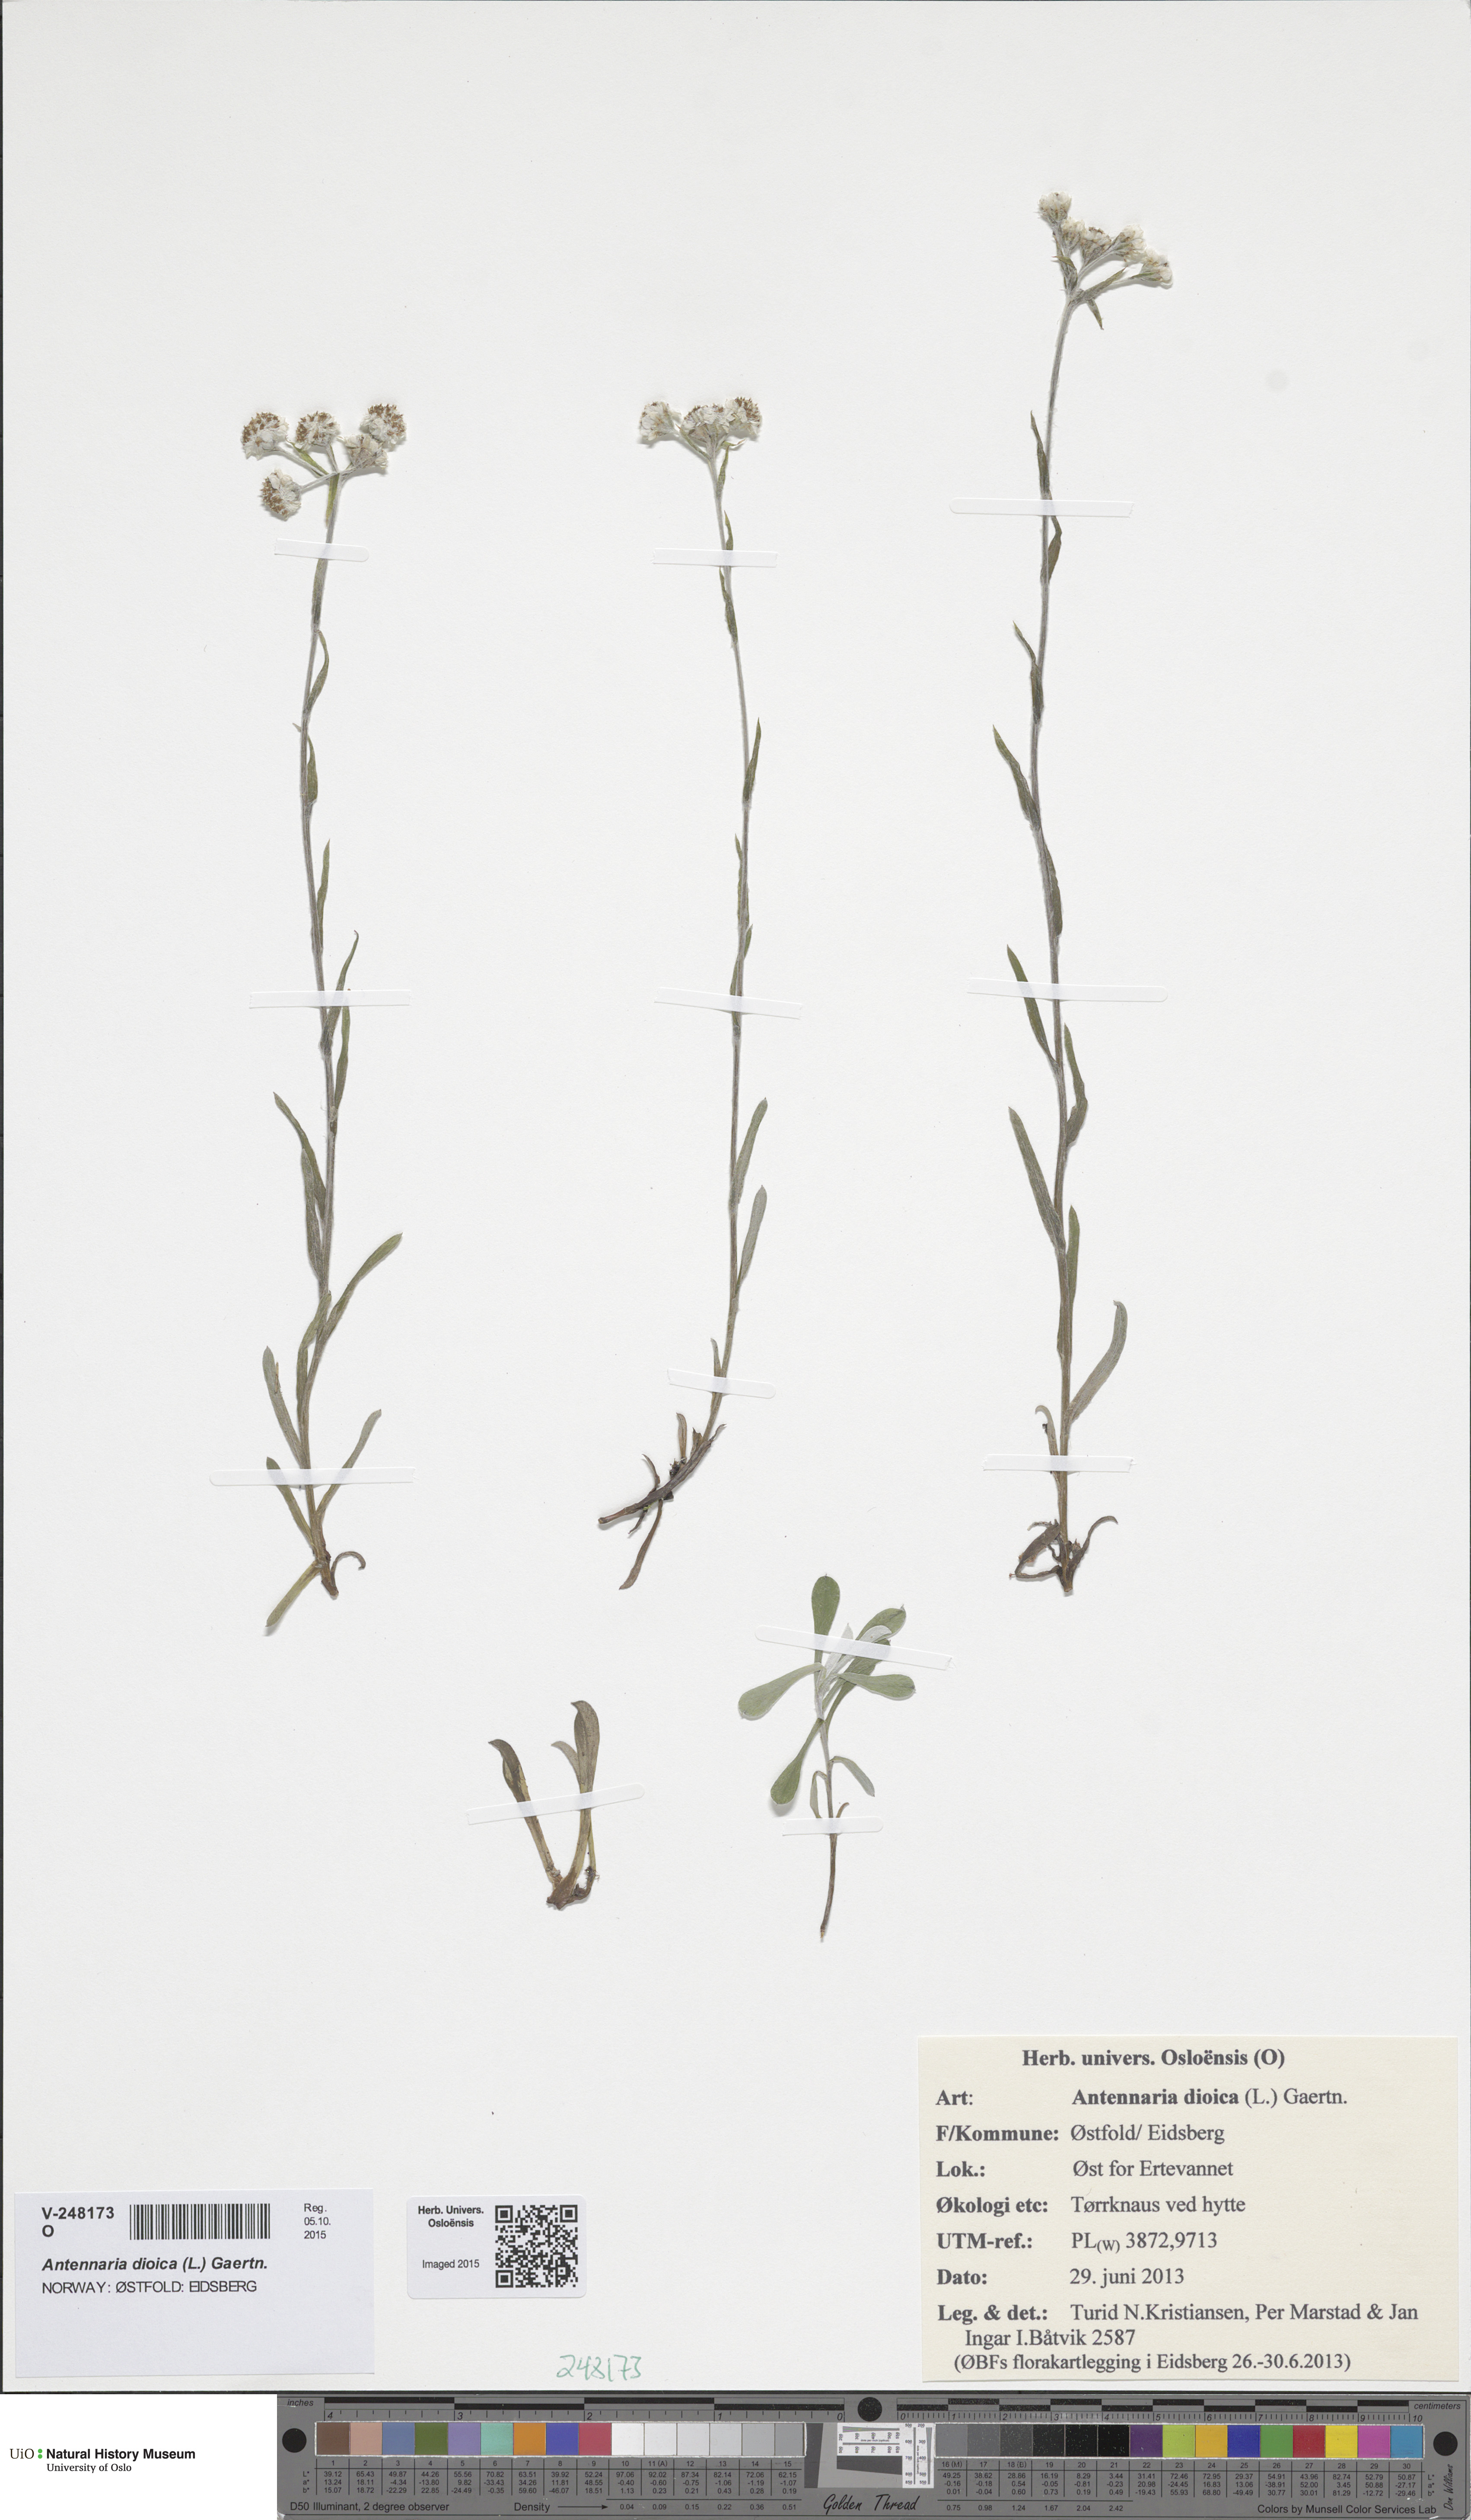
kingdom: Plantae
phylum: Tracheophyta
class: Magnoliopsida
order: Asterales
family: Asteraceae
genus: Antennaria
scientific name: Antennaria dioica
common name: Mountain everlasting
